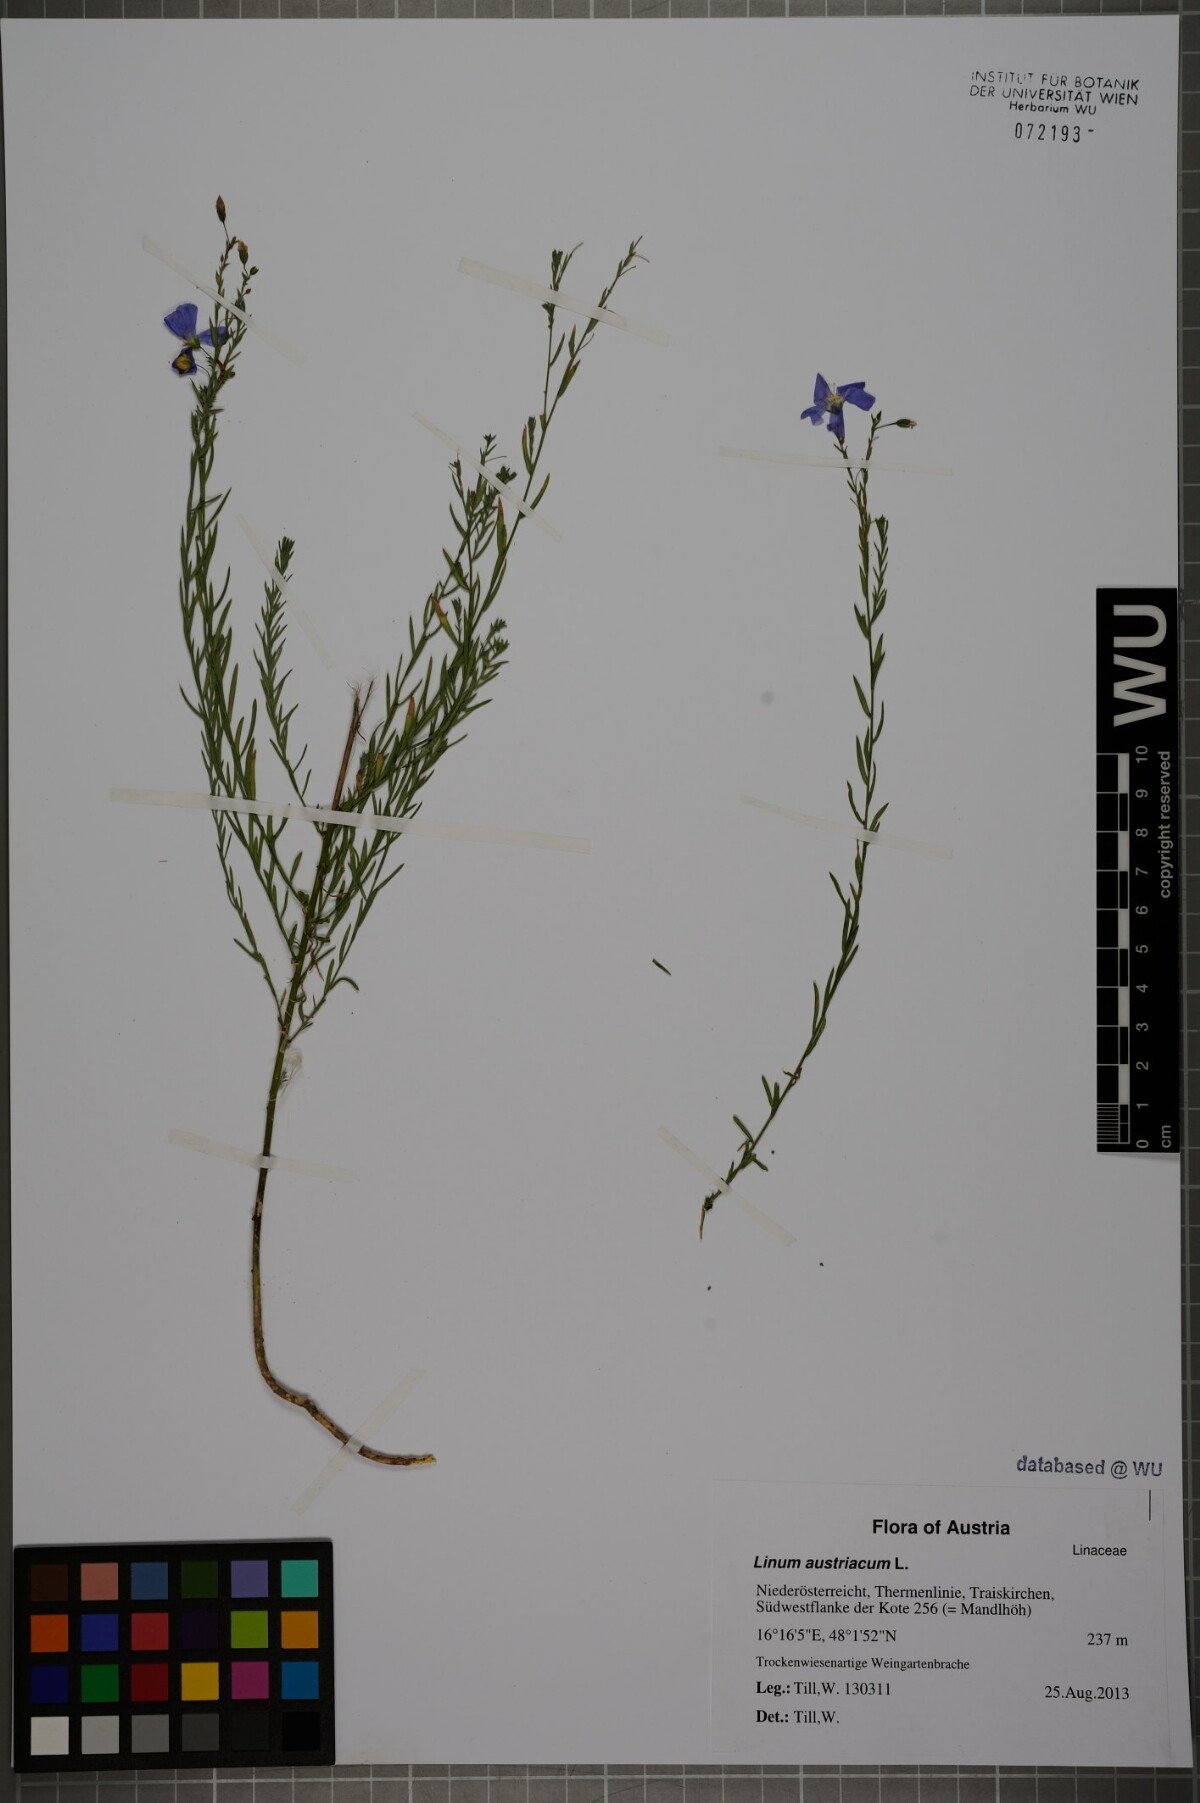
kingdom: Plantae
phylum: Tracheophyta
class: Magnoliopsida
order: Malpighiales
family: Linaceae
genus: Linum
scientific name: Linum austriacum
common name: Austrian flax
